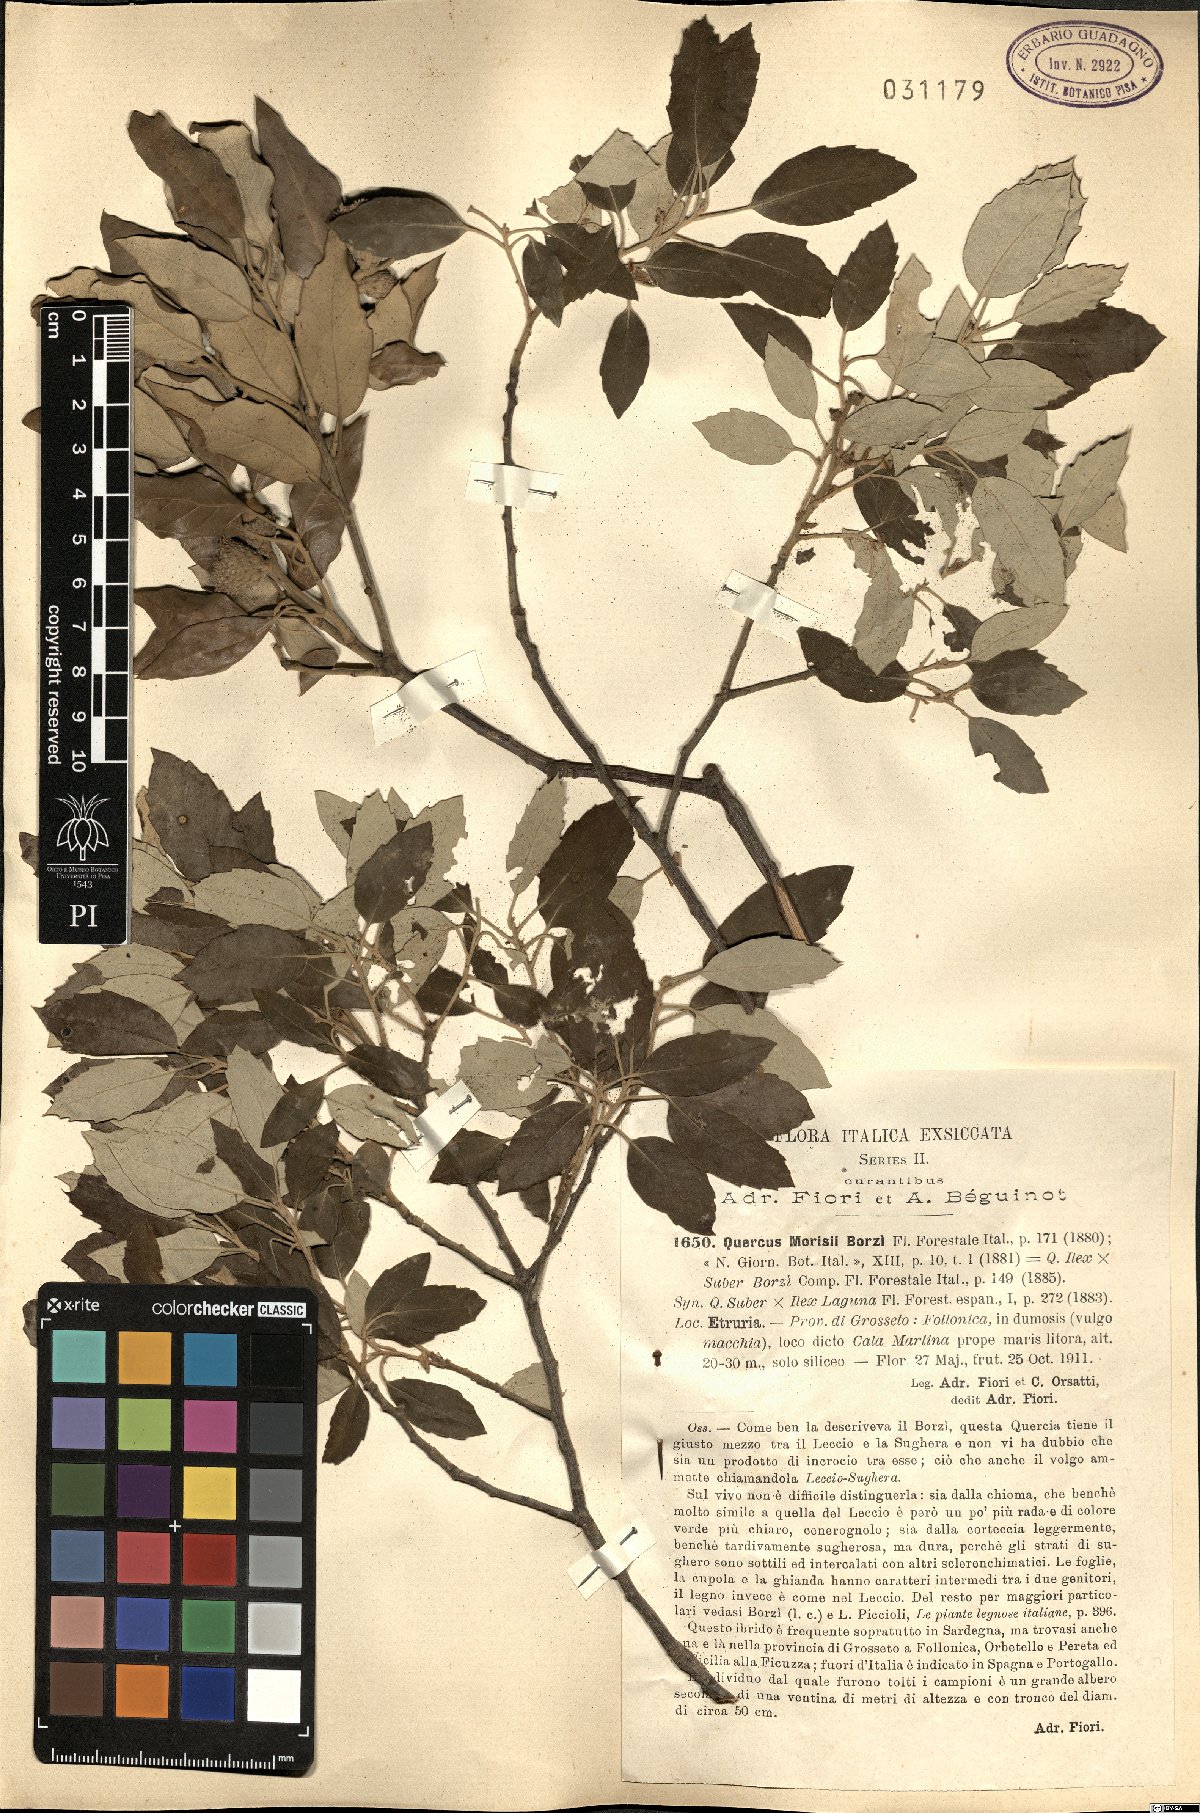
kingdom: Plantae
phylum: Tracheophyta
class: Magnoliopsida
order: Fagales
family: Fagaceae
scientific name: Fagaceae
